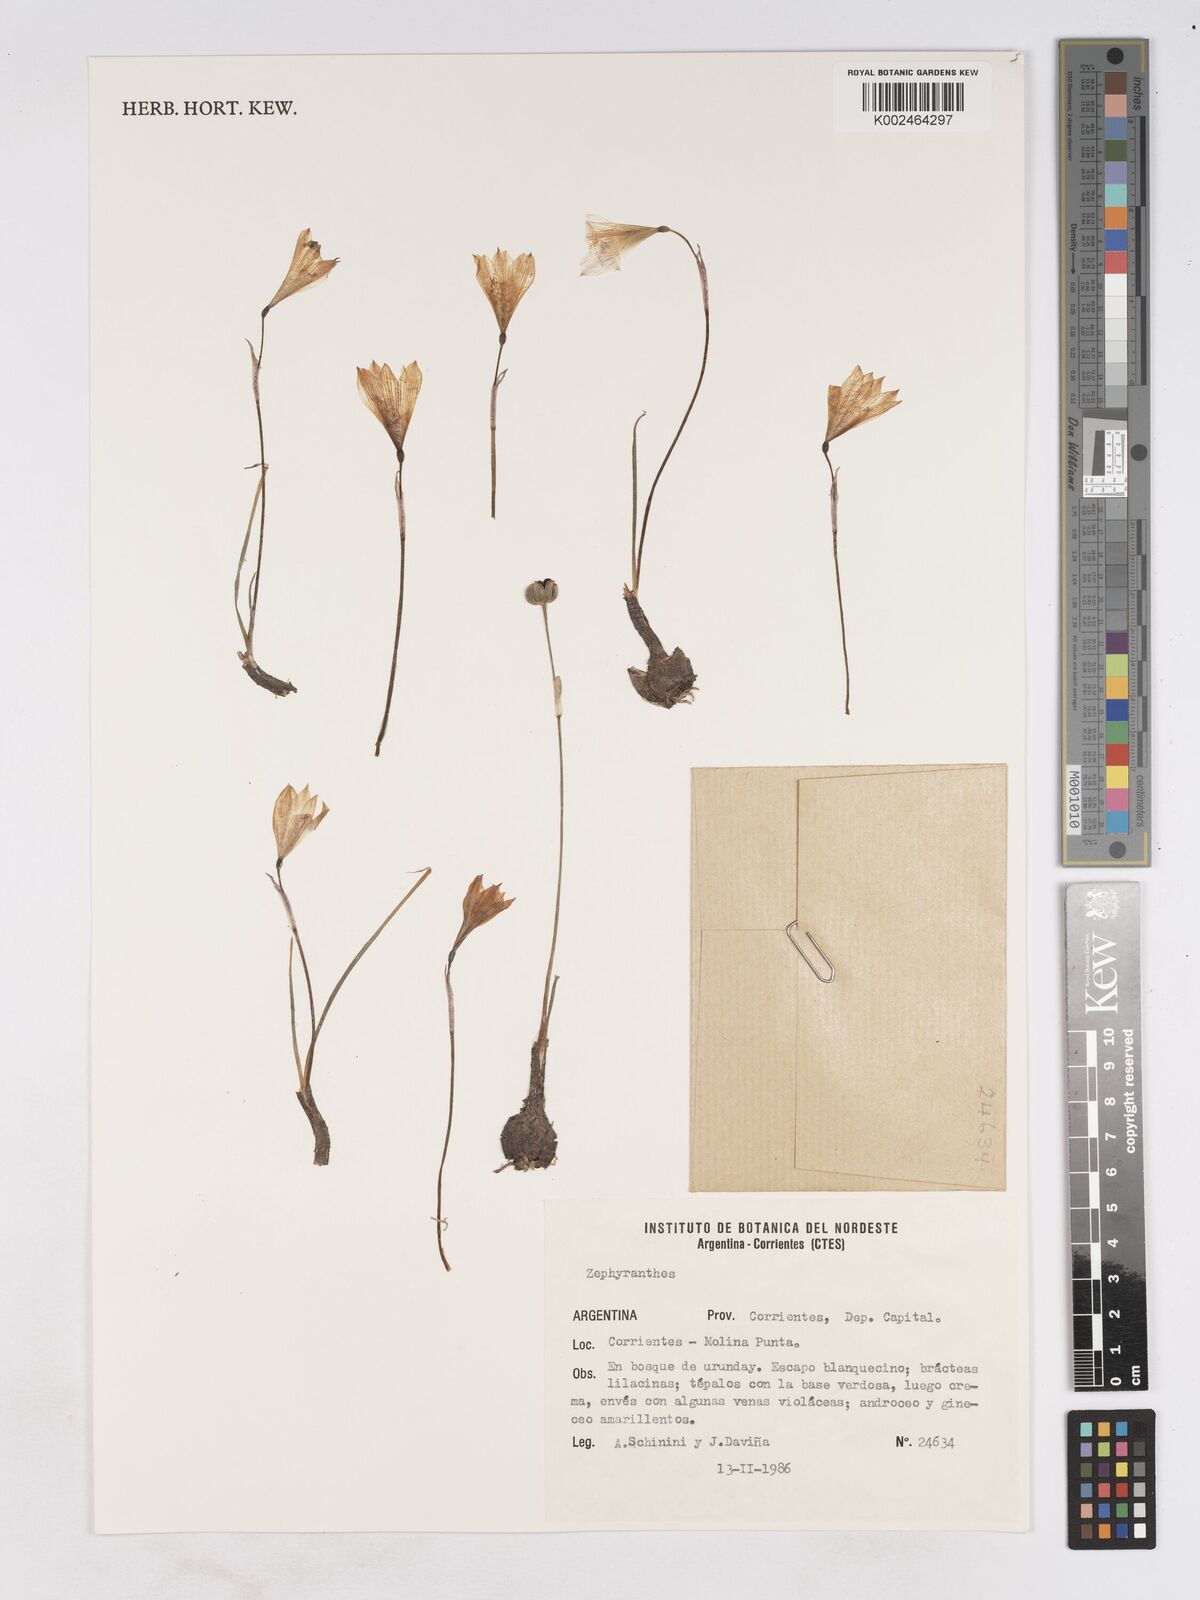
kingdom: Plantae
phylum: Tracheophyta
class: Liliopsida
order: Asparagales
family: Amaryllidaceae
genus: Zephyranthes
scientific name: Zephyranthes
